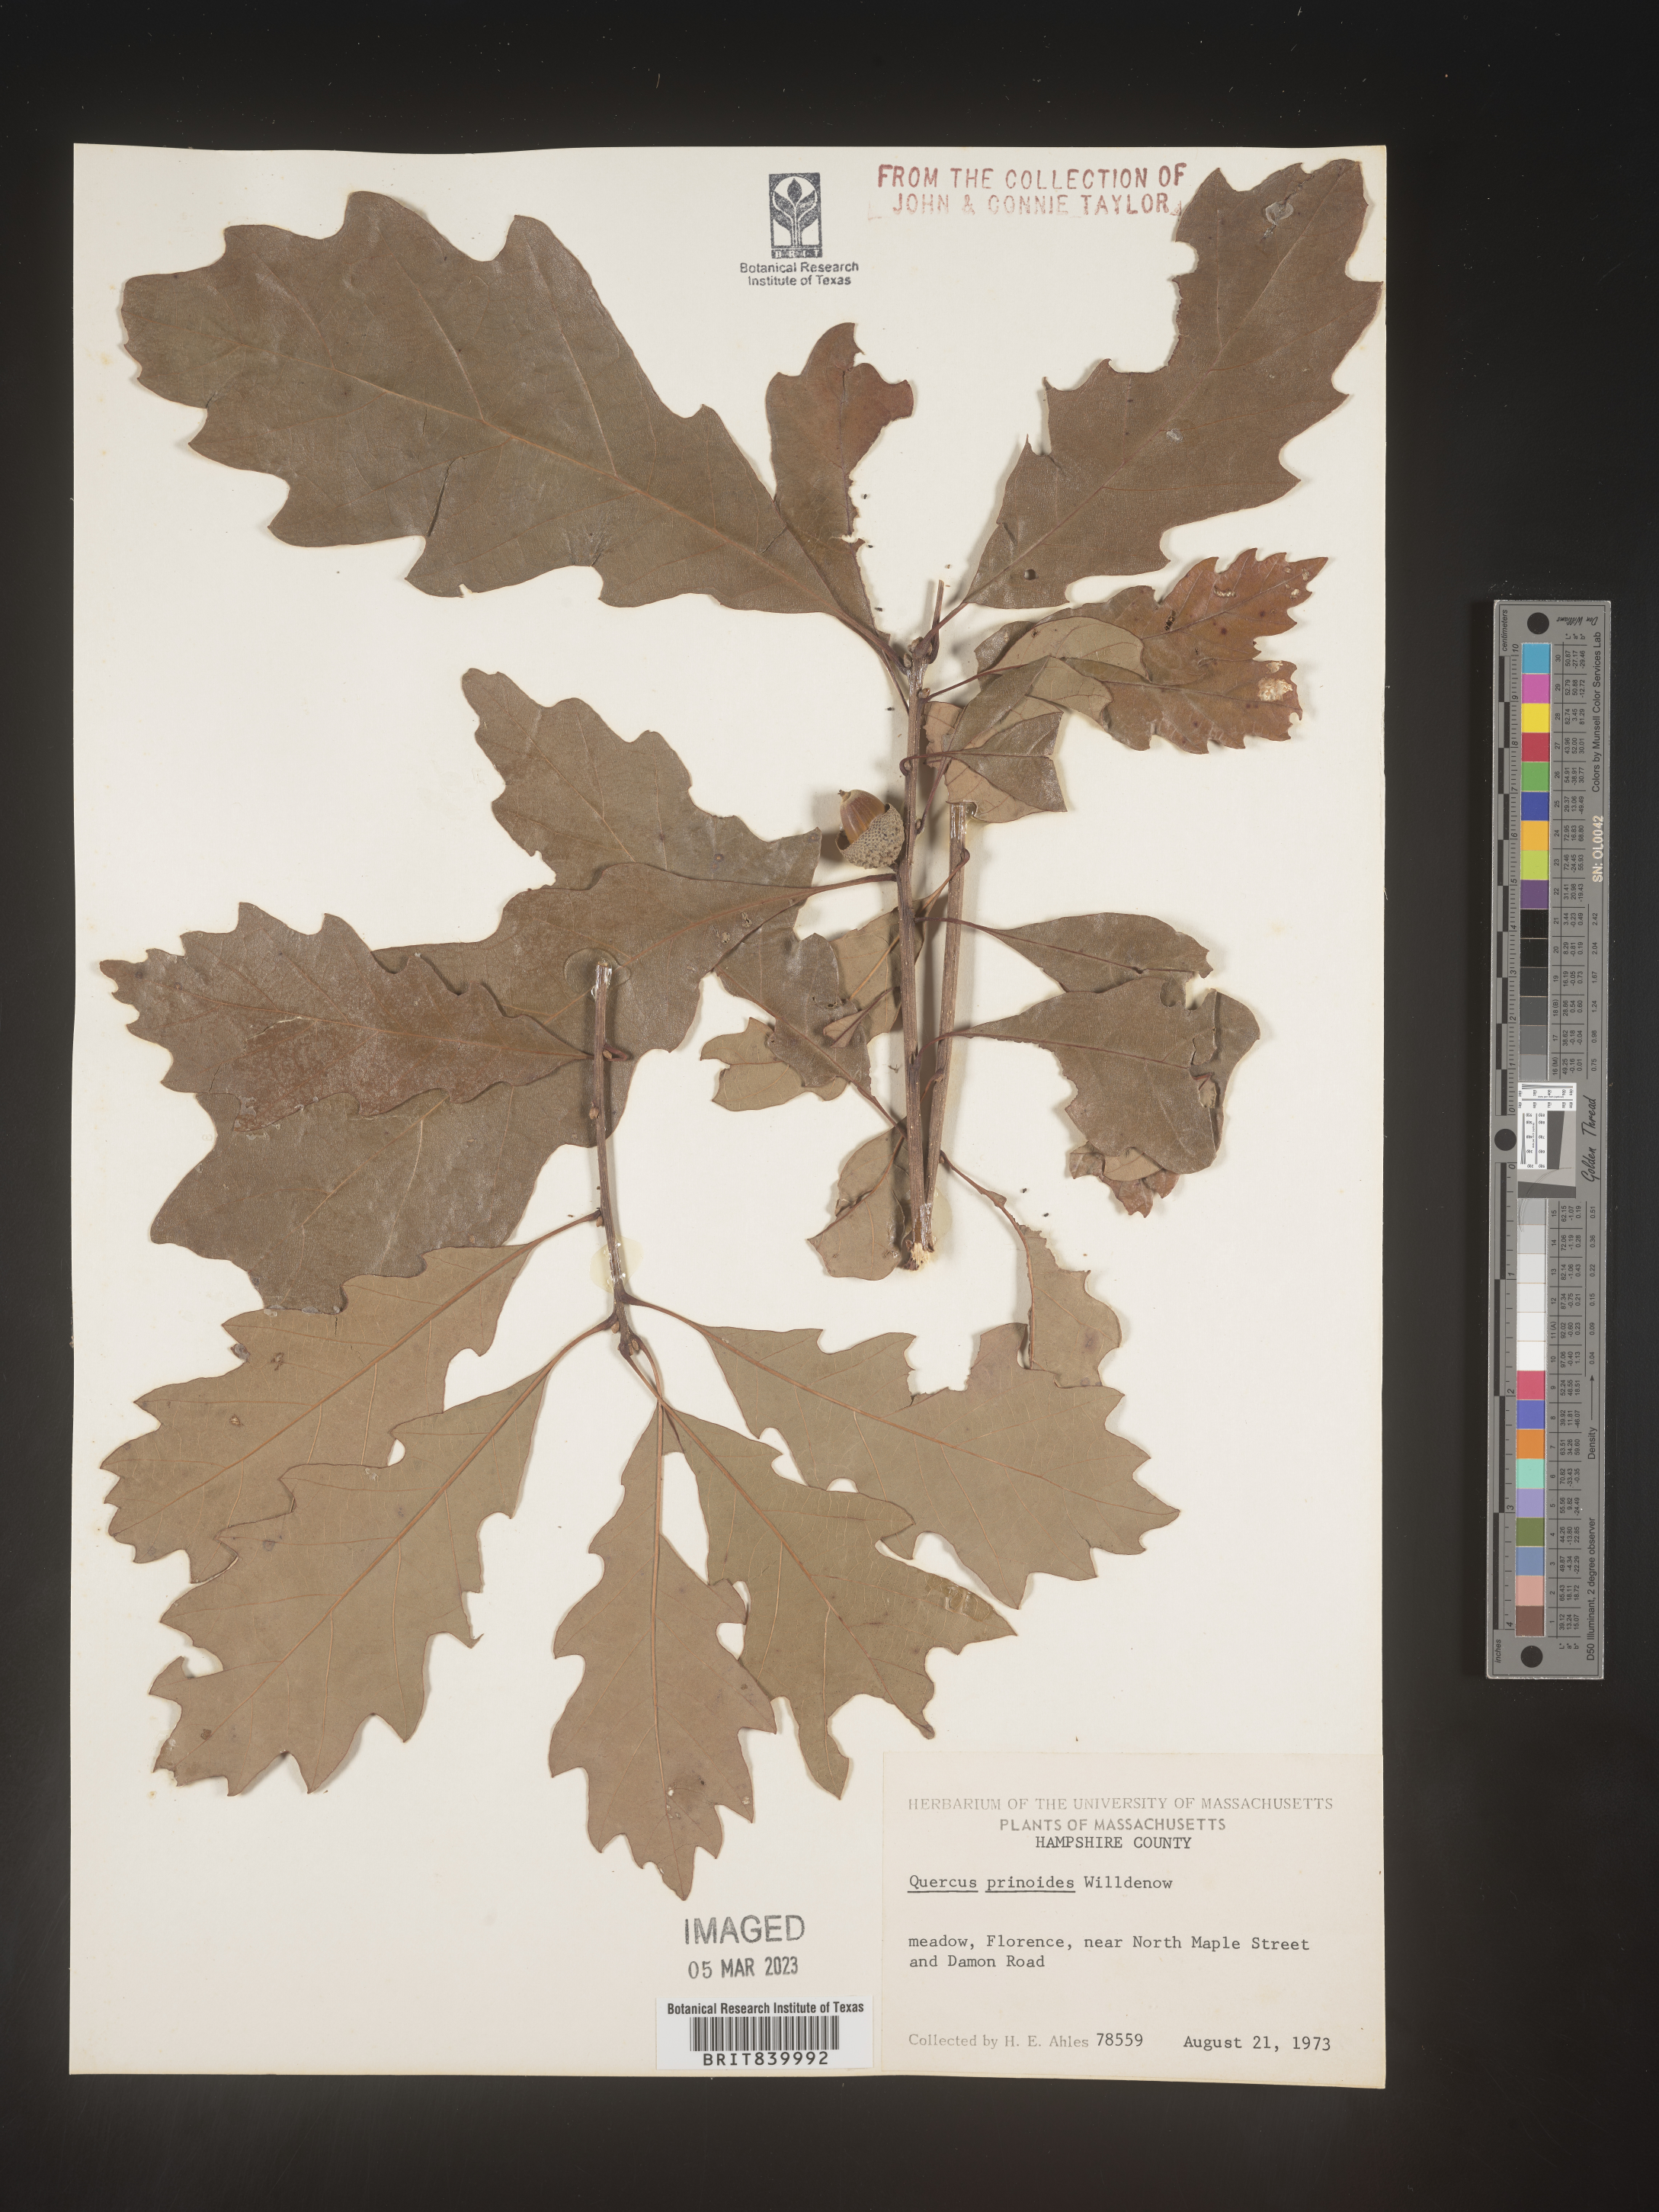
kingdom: Plantae
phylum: Tracheophyta
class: Magnoliopsida
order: Fagales
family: Fagaceae
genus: Quercus
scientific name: Quercus prinoides
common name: Dwarf chinkapin oak
